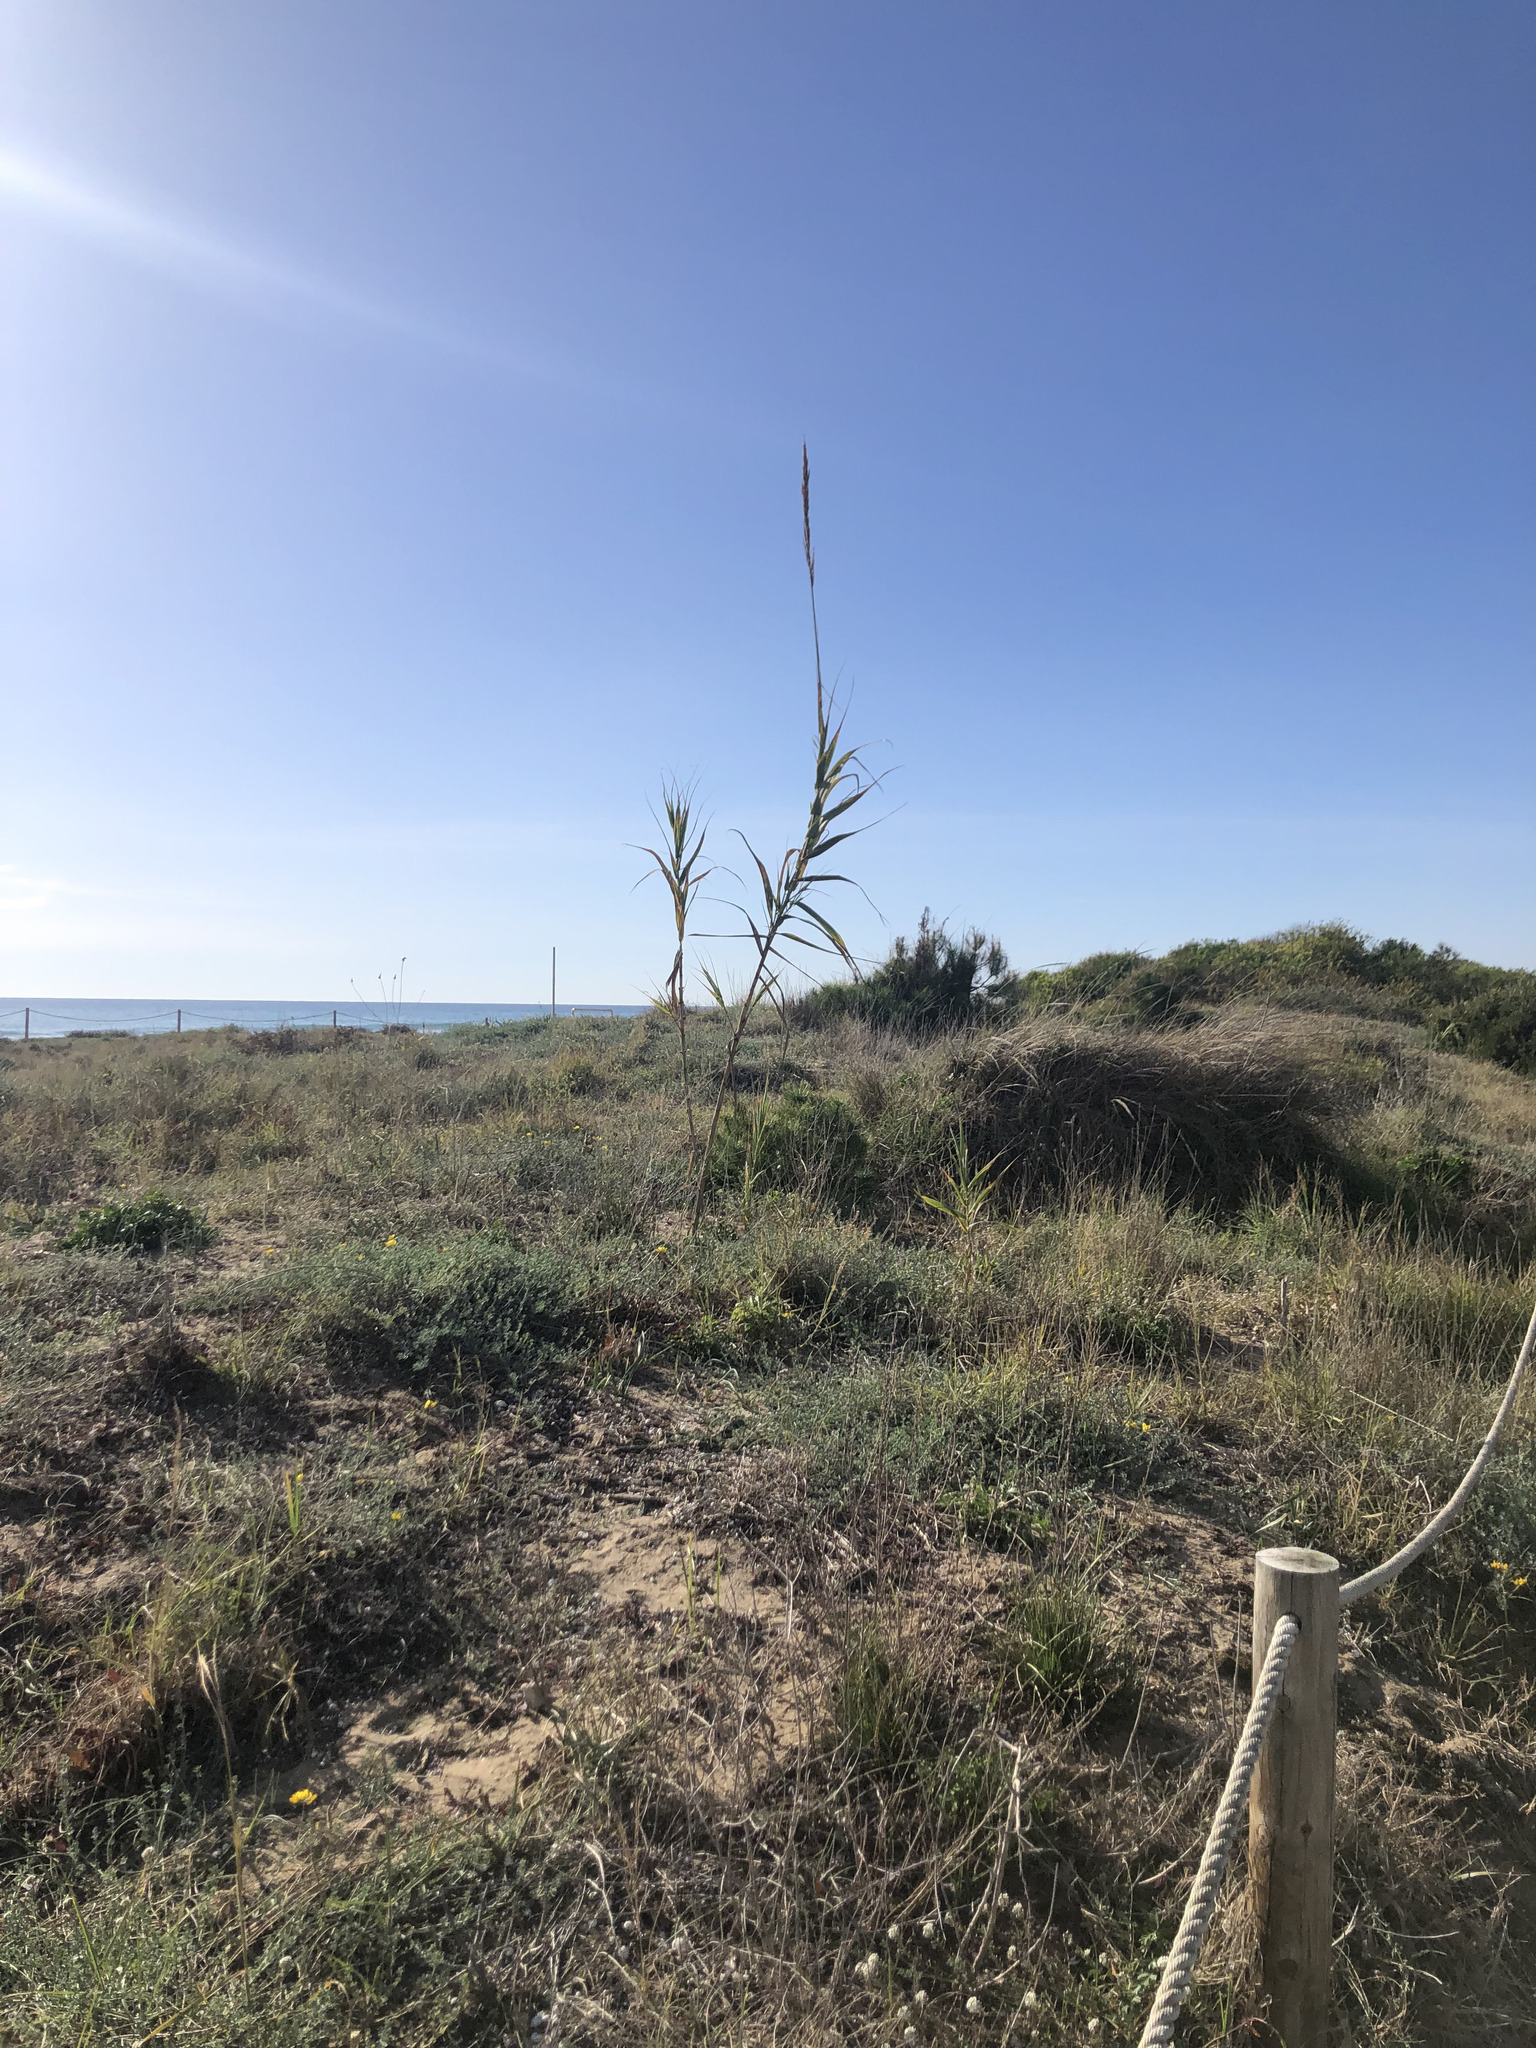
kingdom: Plantae
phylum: Tracheophyta
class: Liliopsida
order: Poales
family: Poaceae
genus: Arundo
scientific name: Arundo donax
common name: Giant reed
